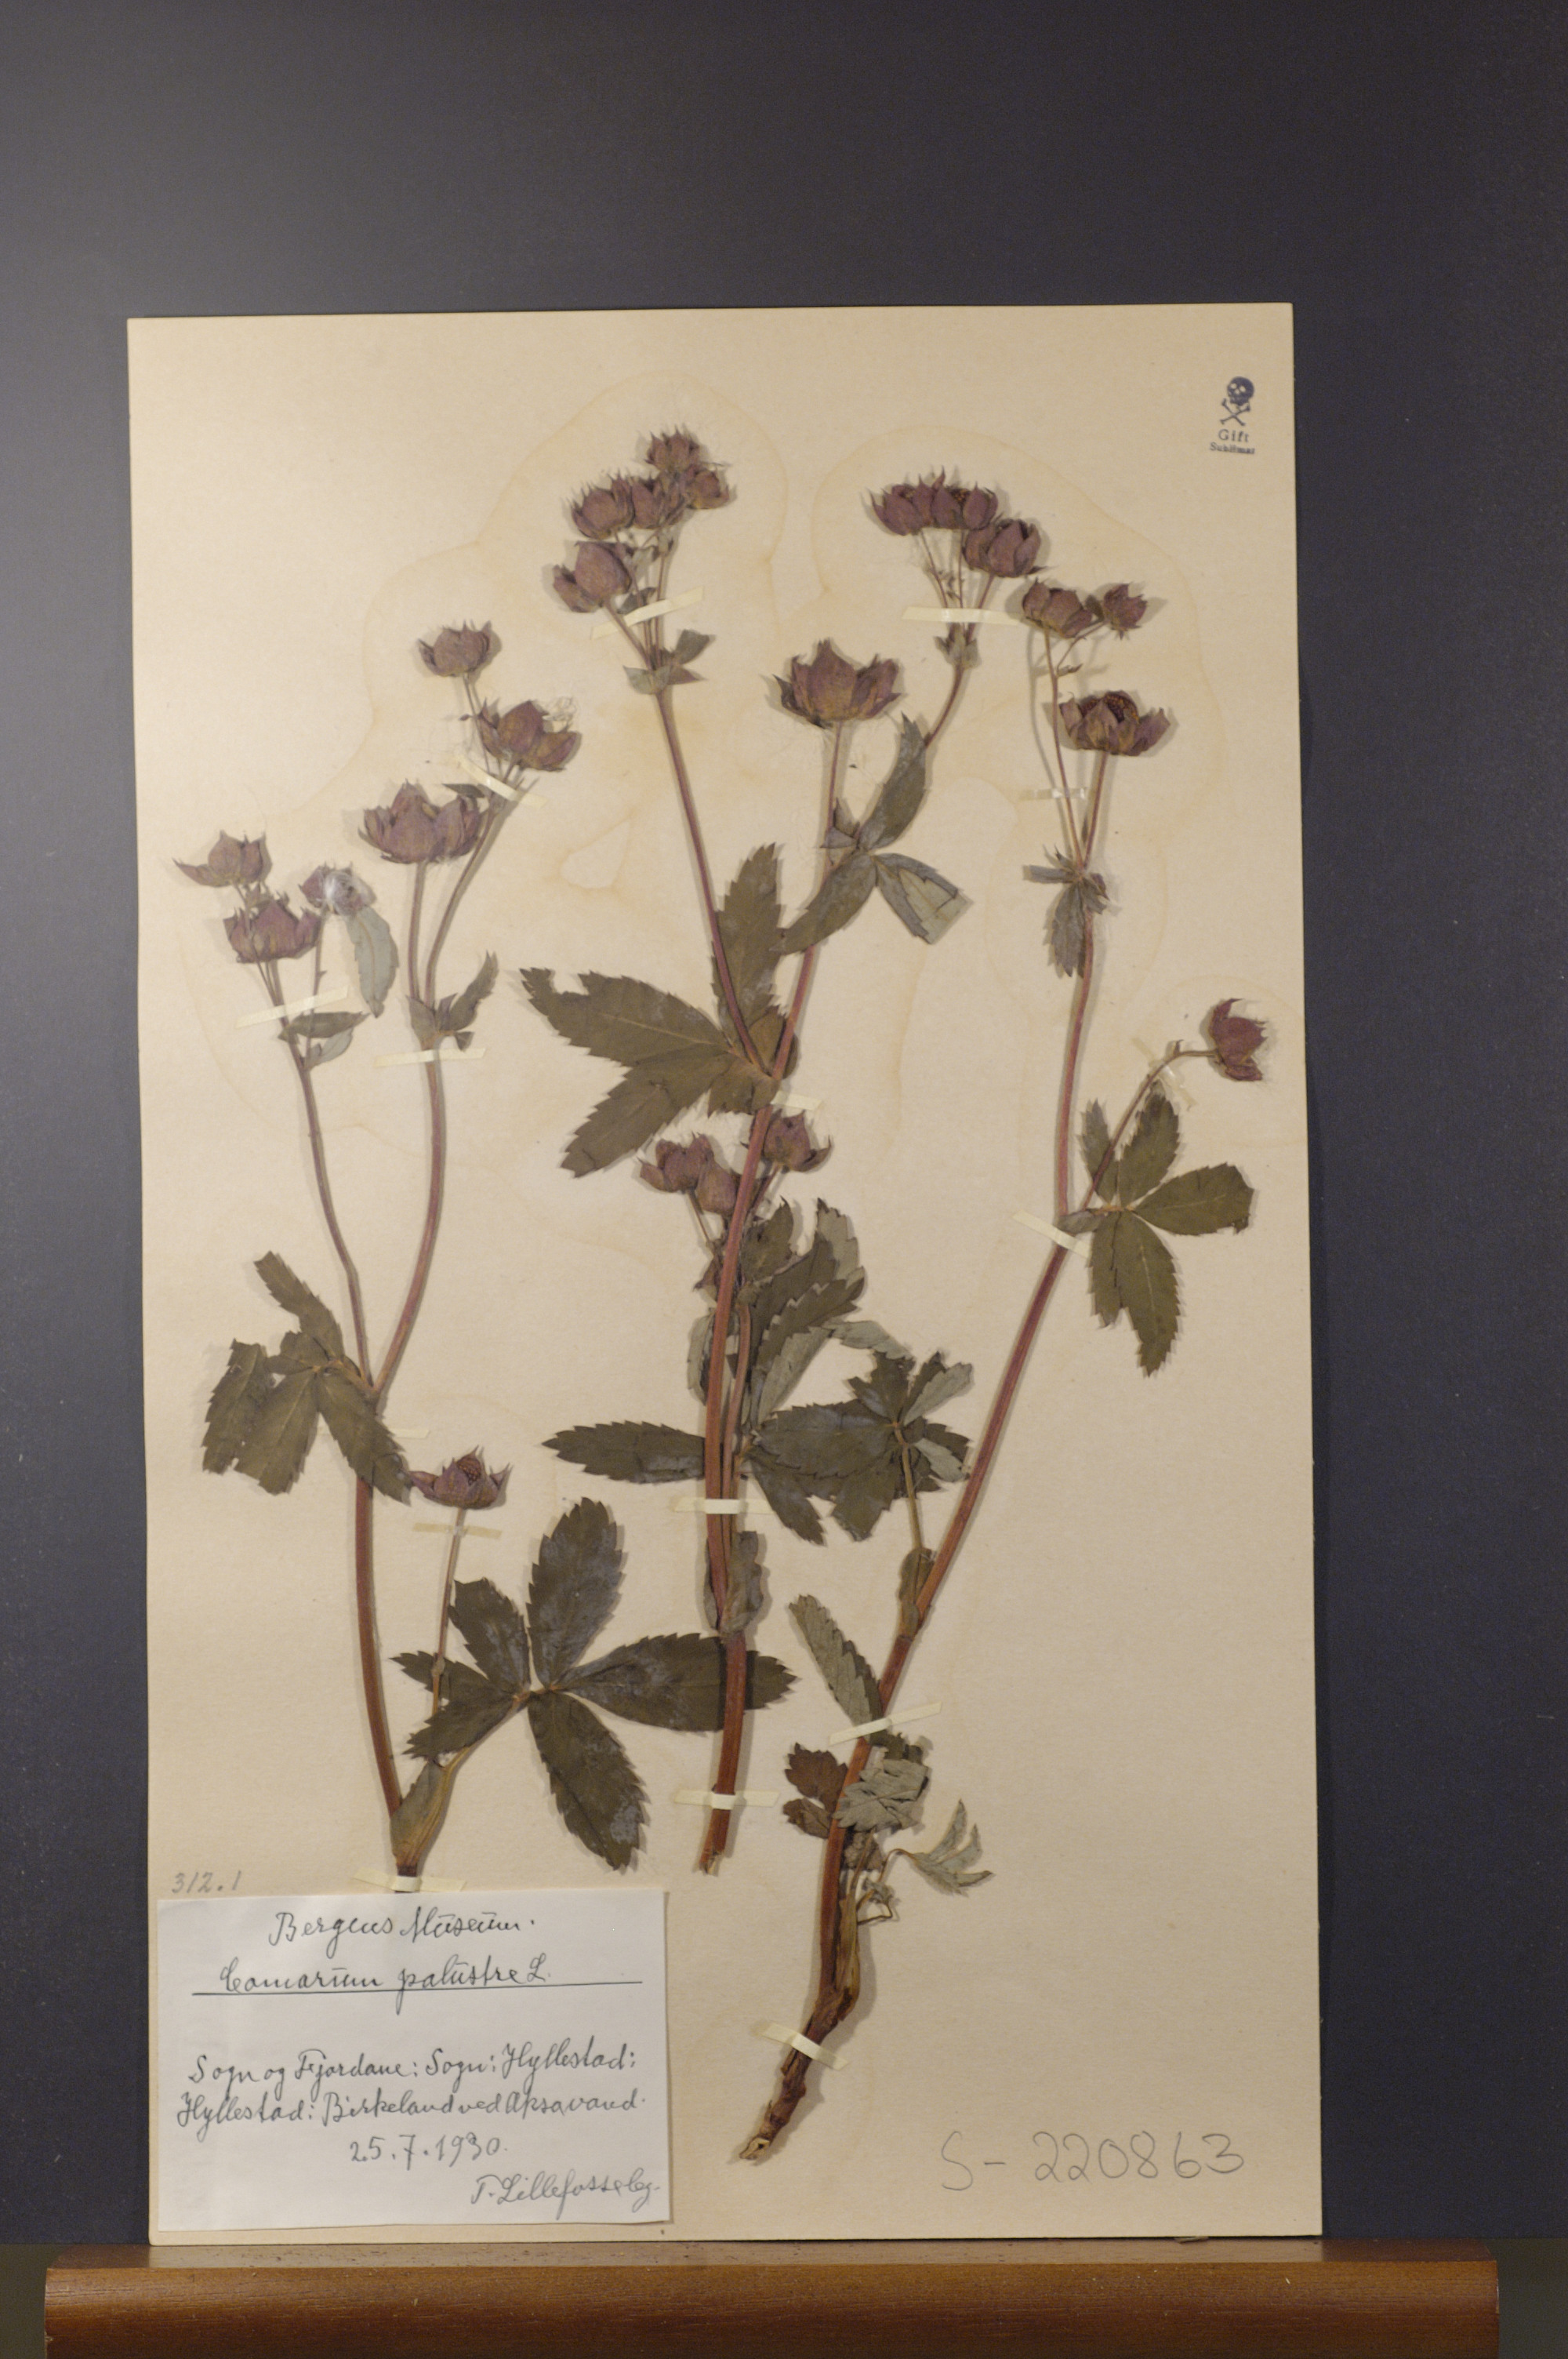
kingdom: Plantae
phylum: Tracheophyta
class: Magnoliopsida
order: Rosales
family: Rosaceae
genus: Comarum
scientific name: Comarum palustre
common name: Marsh cinquefoil
